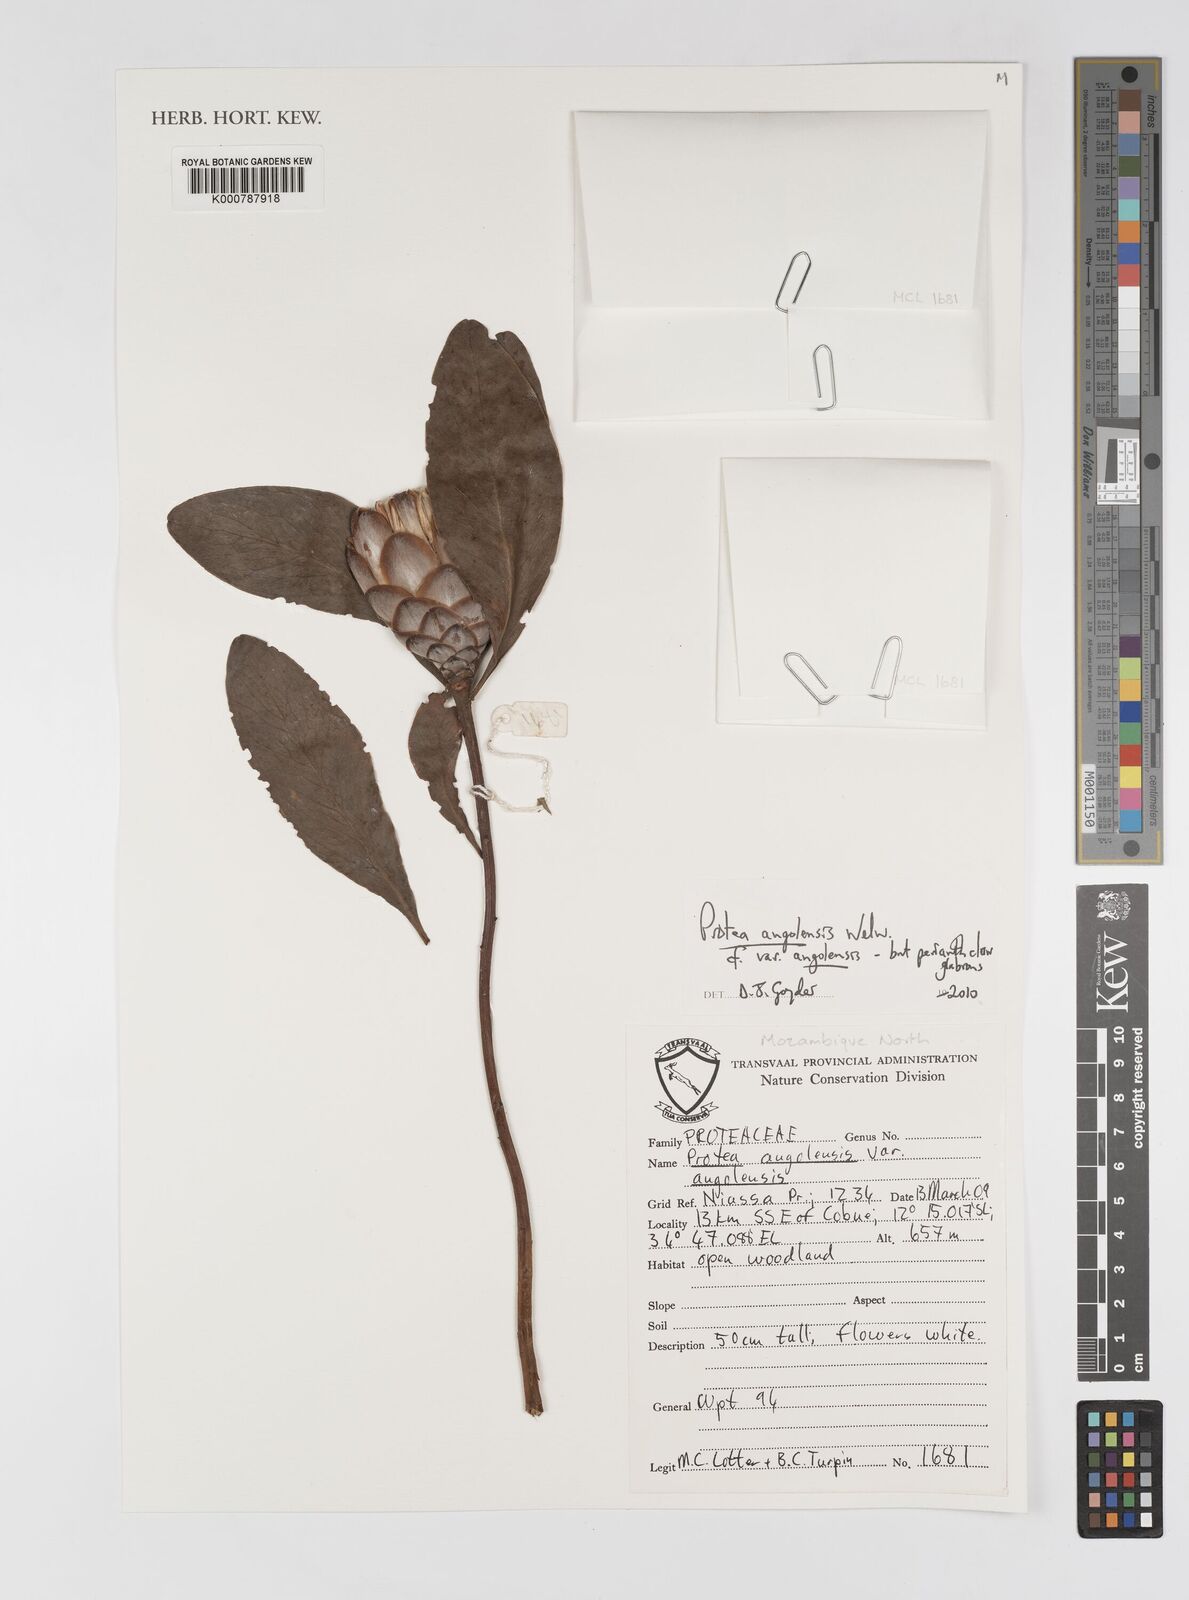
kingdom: Plantae
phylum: Tracheophyta
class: Magnoliopsida
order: Proteales
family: Proteaceae
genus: Protea
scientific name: Protea angolensis
